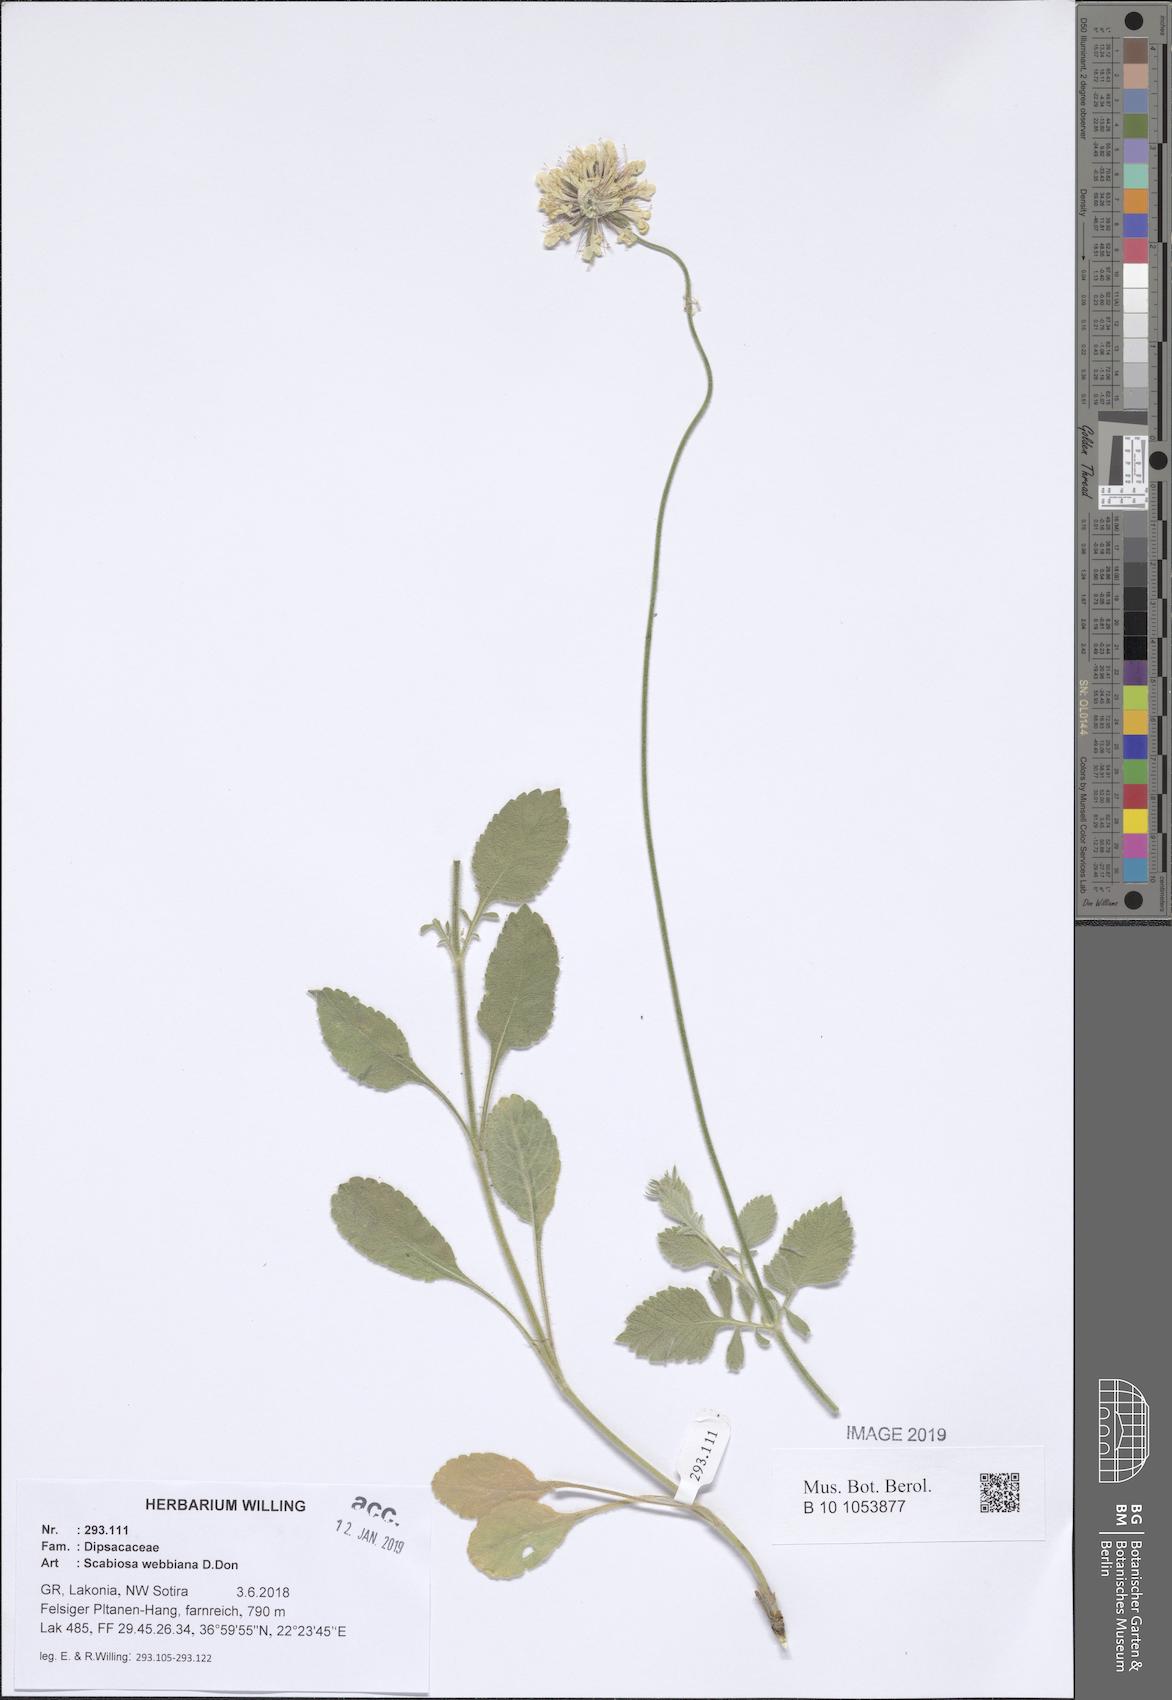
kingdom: Plantae
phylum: Tracheophyta
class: Magnoliopsida
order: Dipsacales
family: Caprifoliaceae
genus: Scabiosa
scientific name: Scabiosa webbiana
